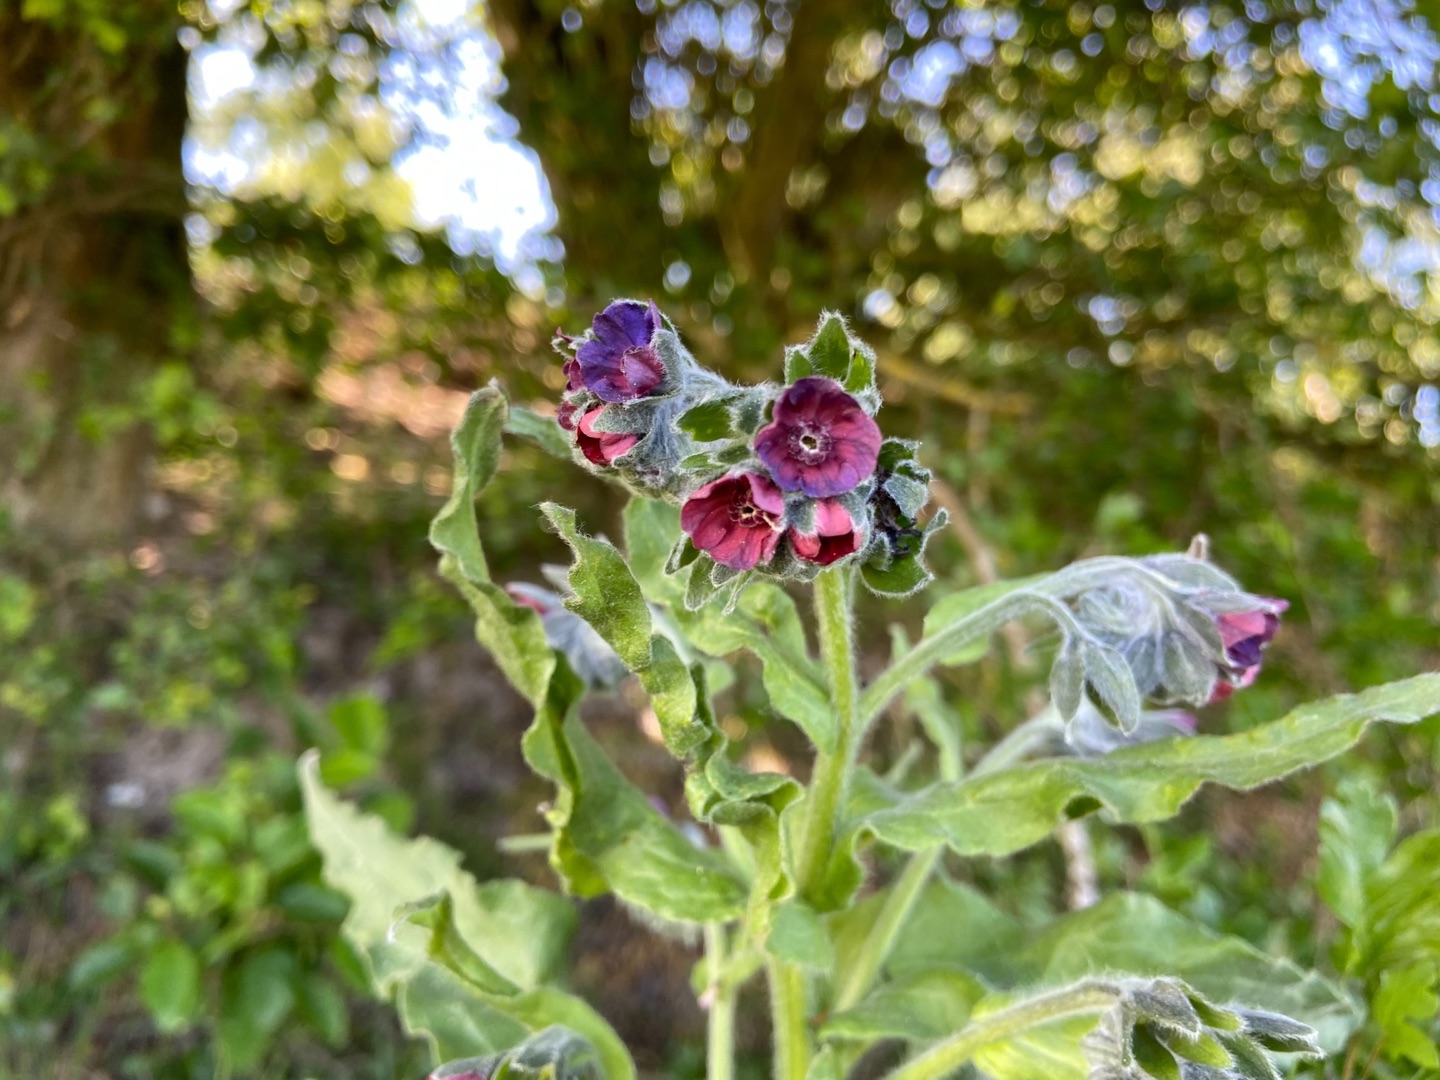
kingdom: Plantae
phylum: Tracheophyta
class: Magnoliopsida
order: Boraginales
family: Boraginaceae
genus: Cynoglossum
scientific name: Cynoglossum officinale
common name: Hundetunge
